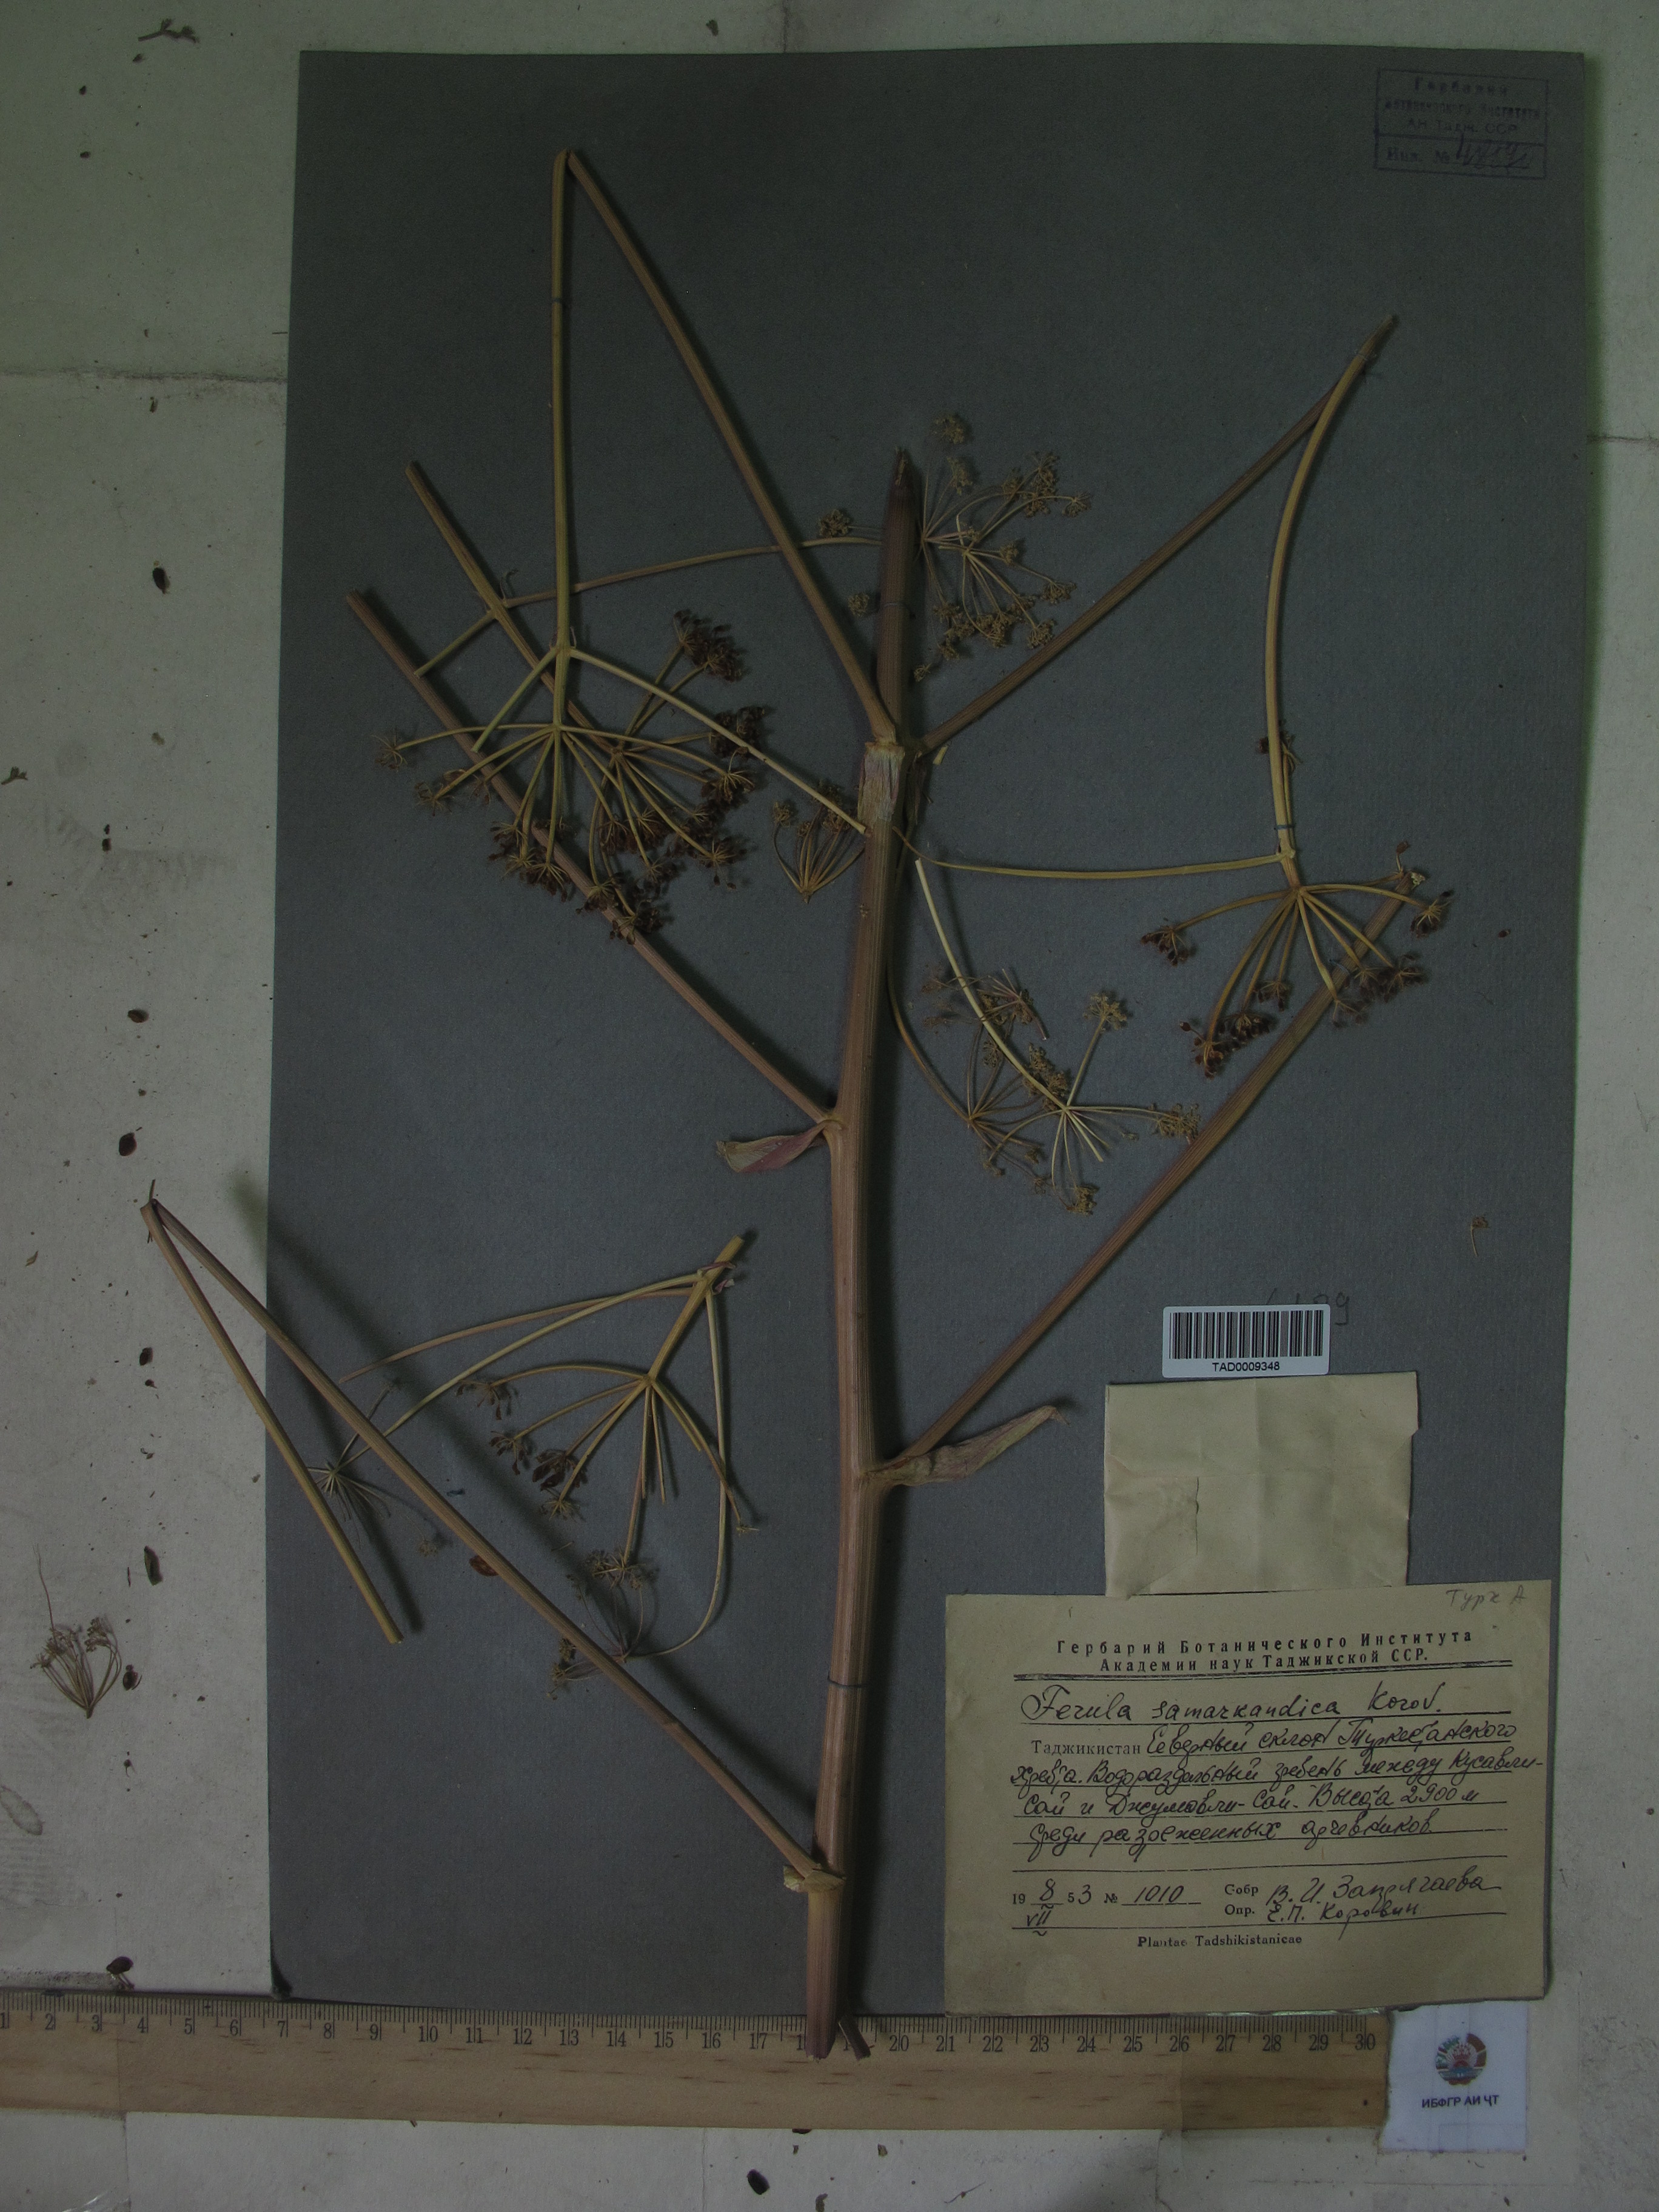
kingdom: Plantae
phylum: Tracheophyta
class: Magnoliopsida
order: Apiales
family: Apiaceae
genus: Ferula
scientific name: Ferula samarkandica
